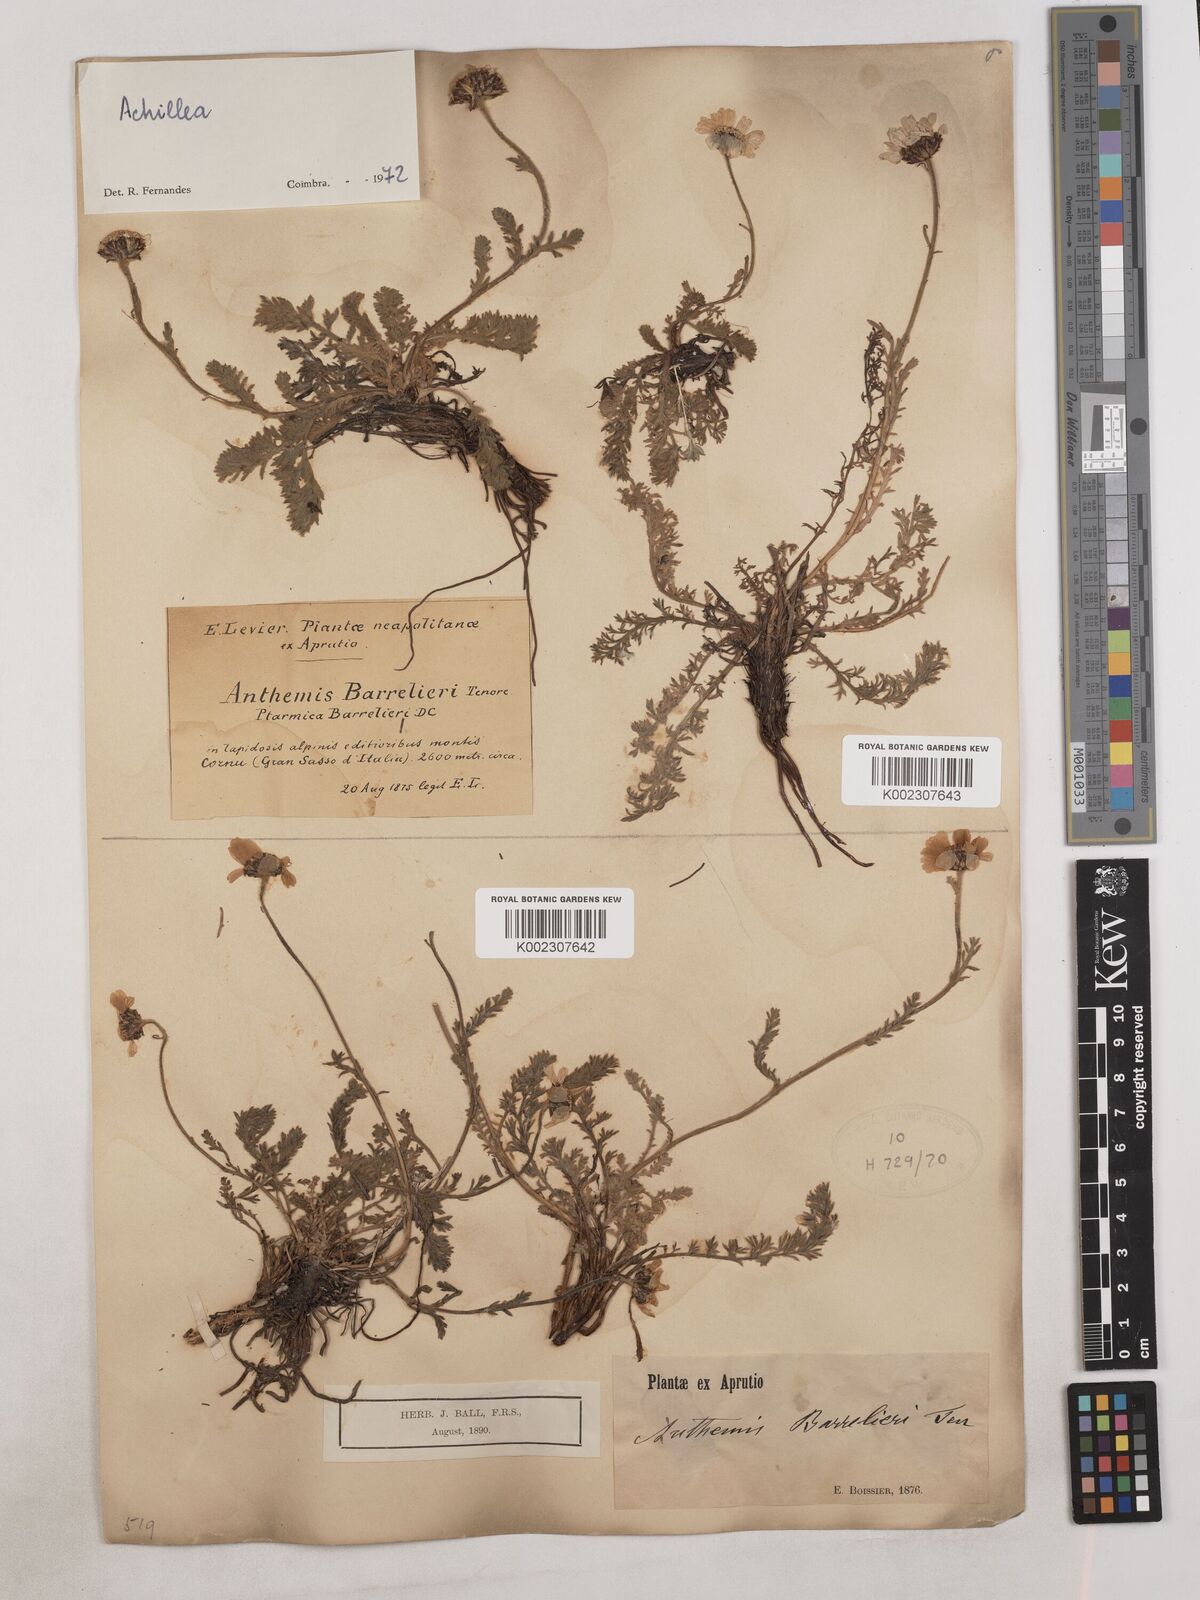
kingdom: Plantae
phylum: Tracheophyta
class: Magnoliopsida
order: Asterales
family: Asteraceae
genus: Achillea
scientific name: Achillea
